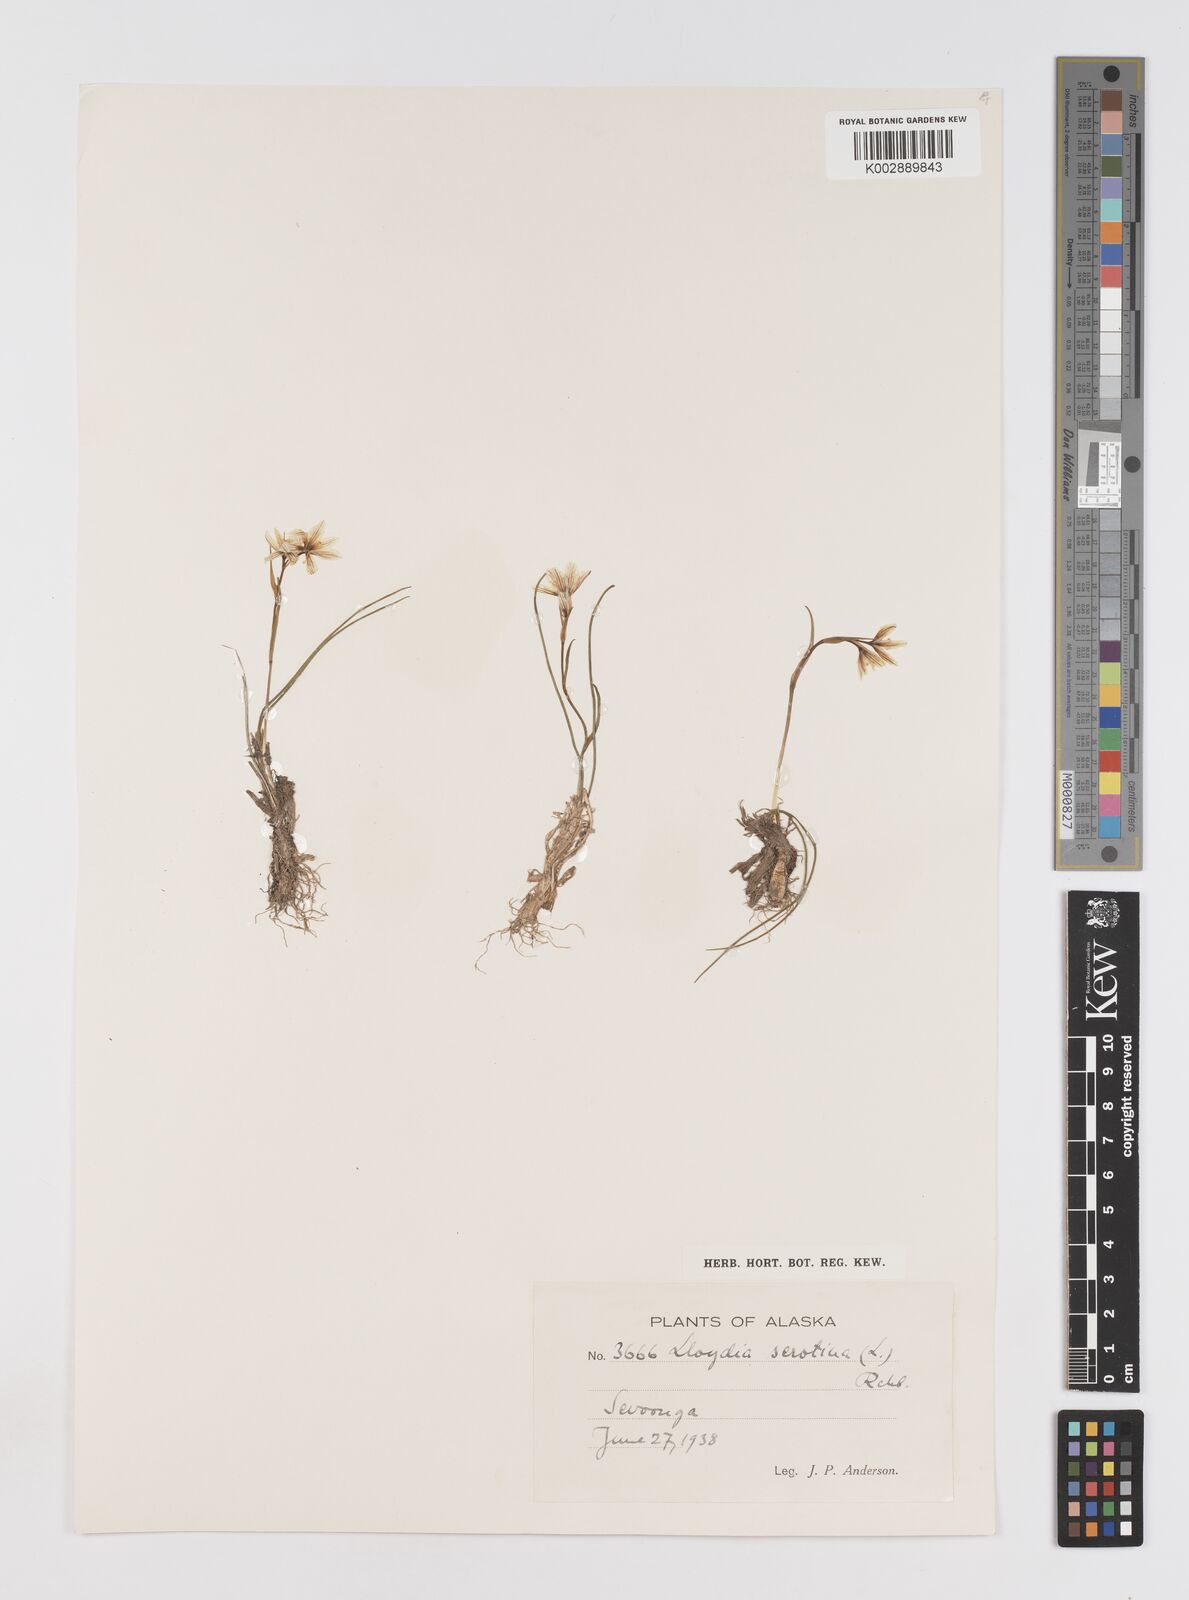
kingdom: Plantae
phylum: Tracheophyta
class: Liliopsida
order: Liliales
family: Liliaceae
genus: Gagea
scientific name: Gagea serotina
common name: Snowdon lily
